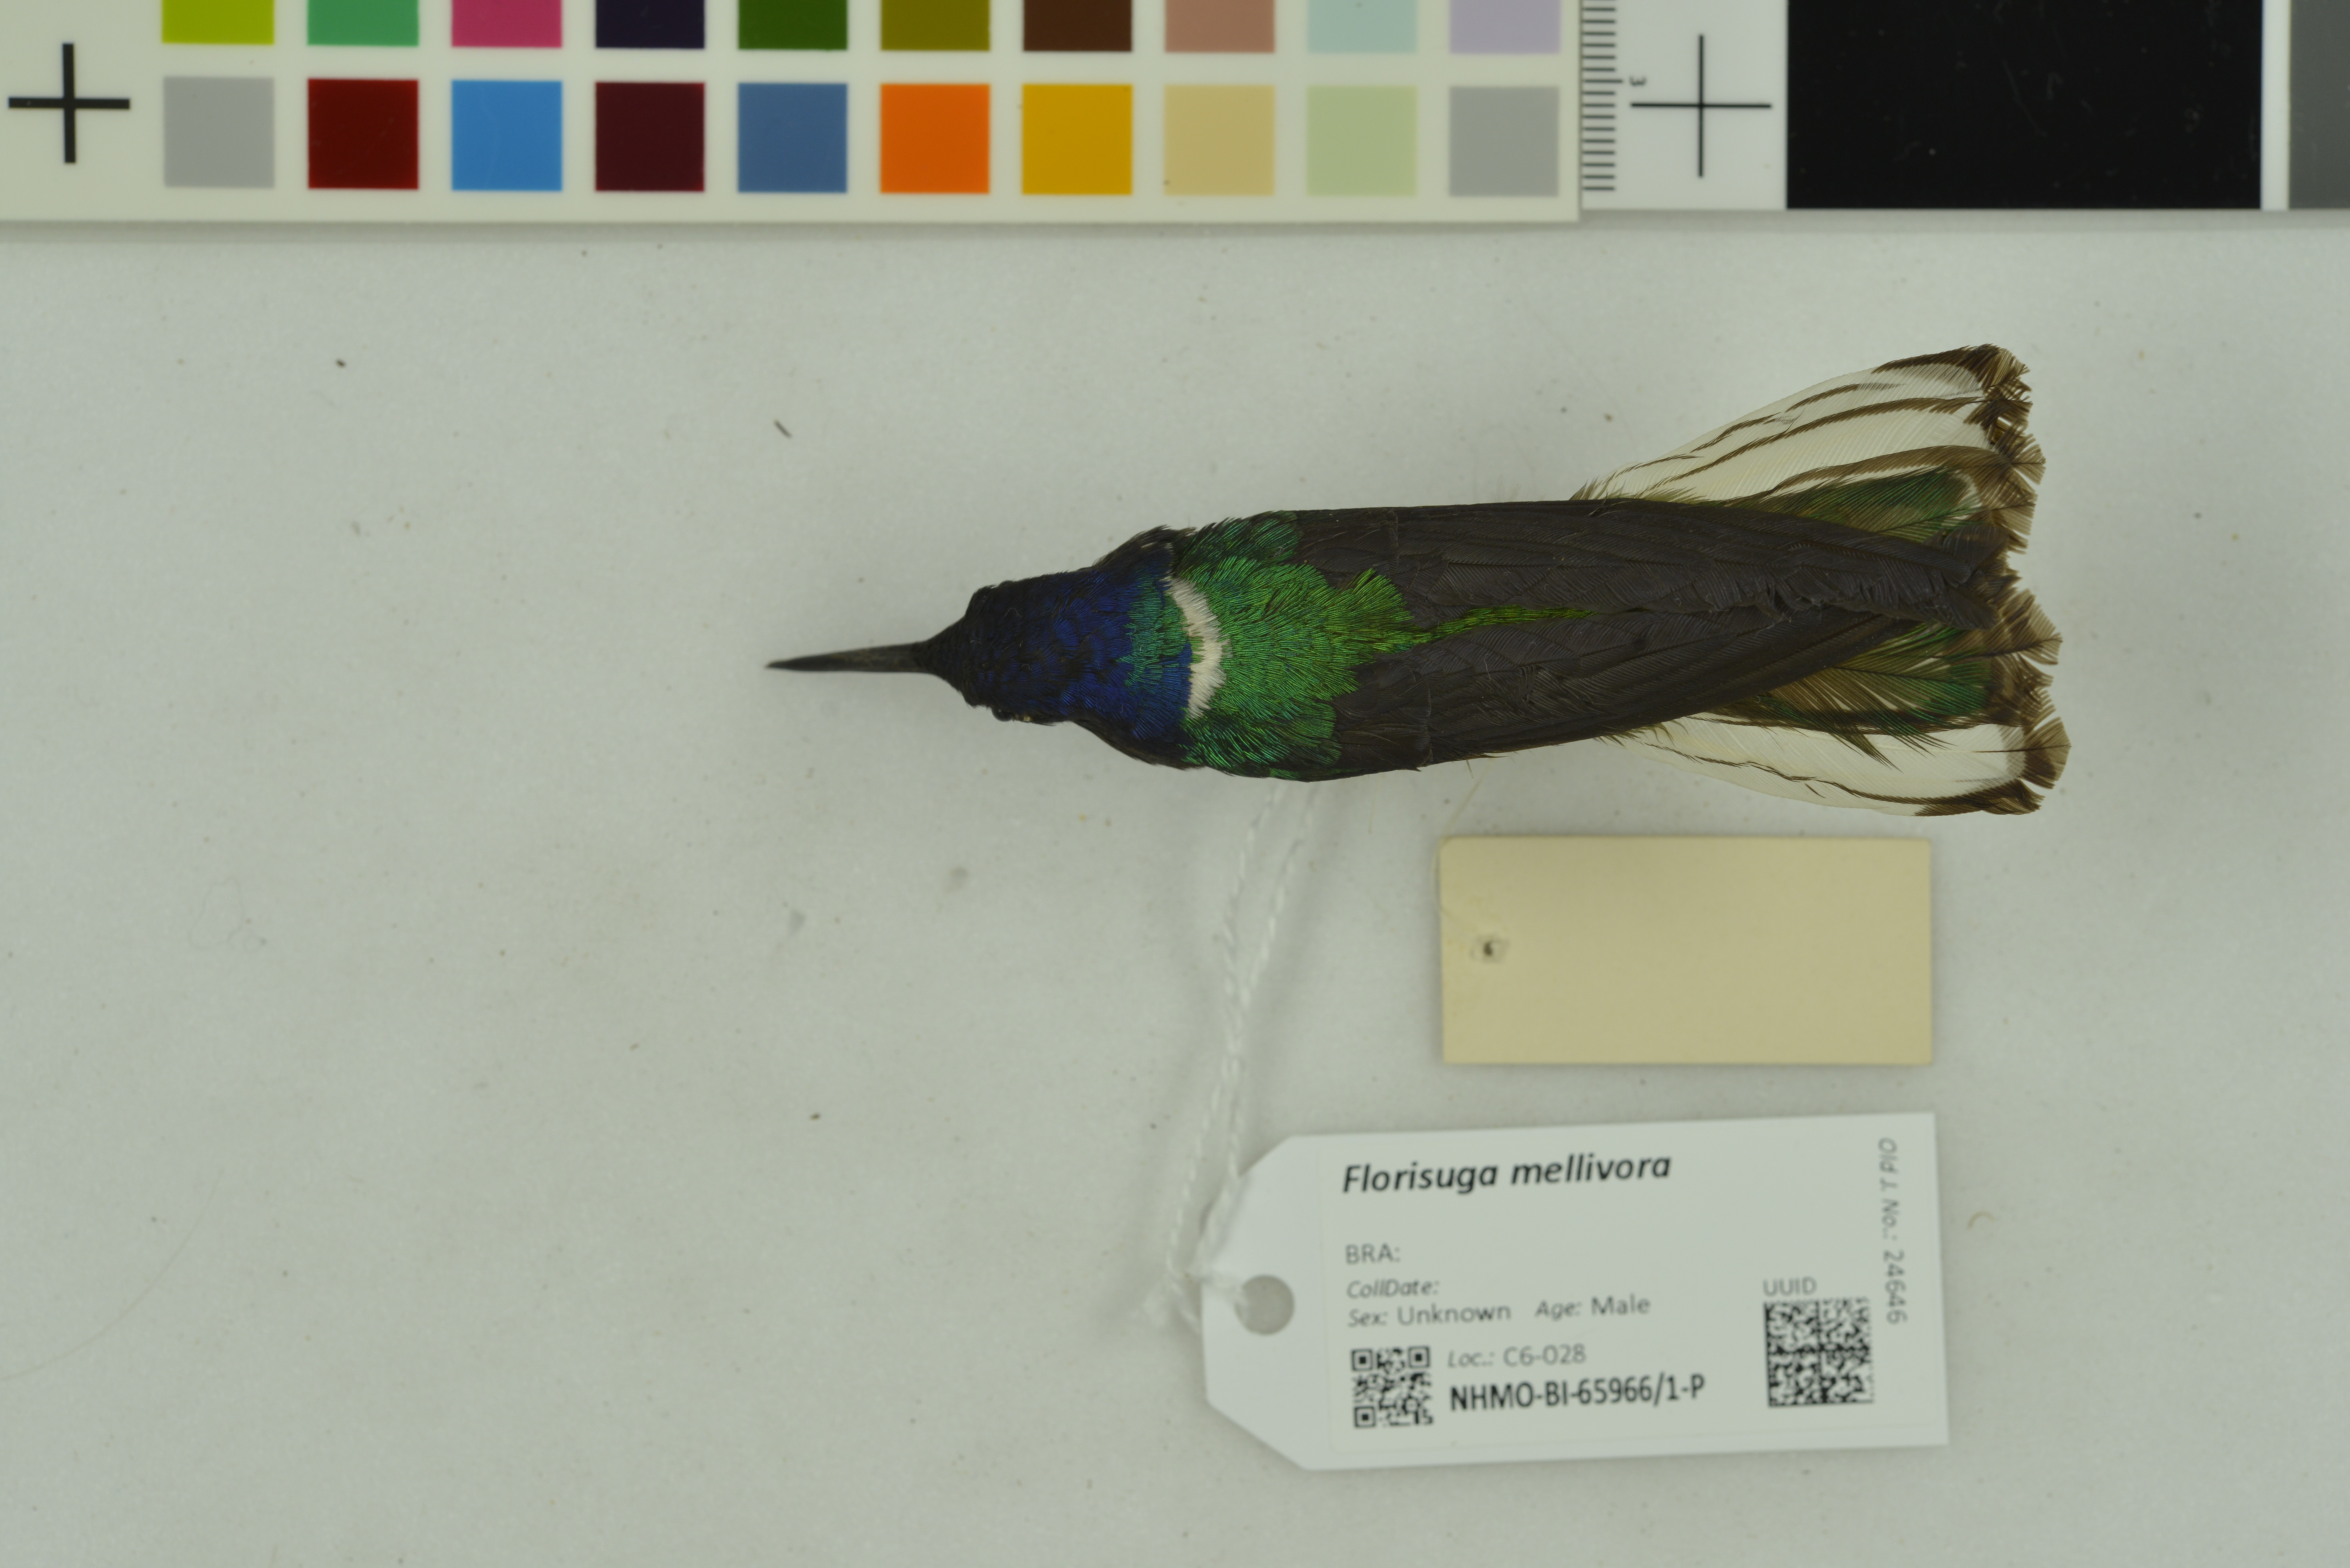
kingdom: Animalia
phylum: Chordata
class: Aves
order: Apodiformes
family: Trochilidae
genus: Florisuga
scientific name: Florisuga mellivora
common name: White-necked jacobin
